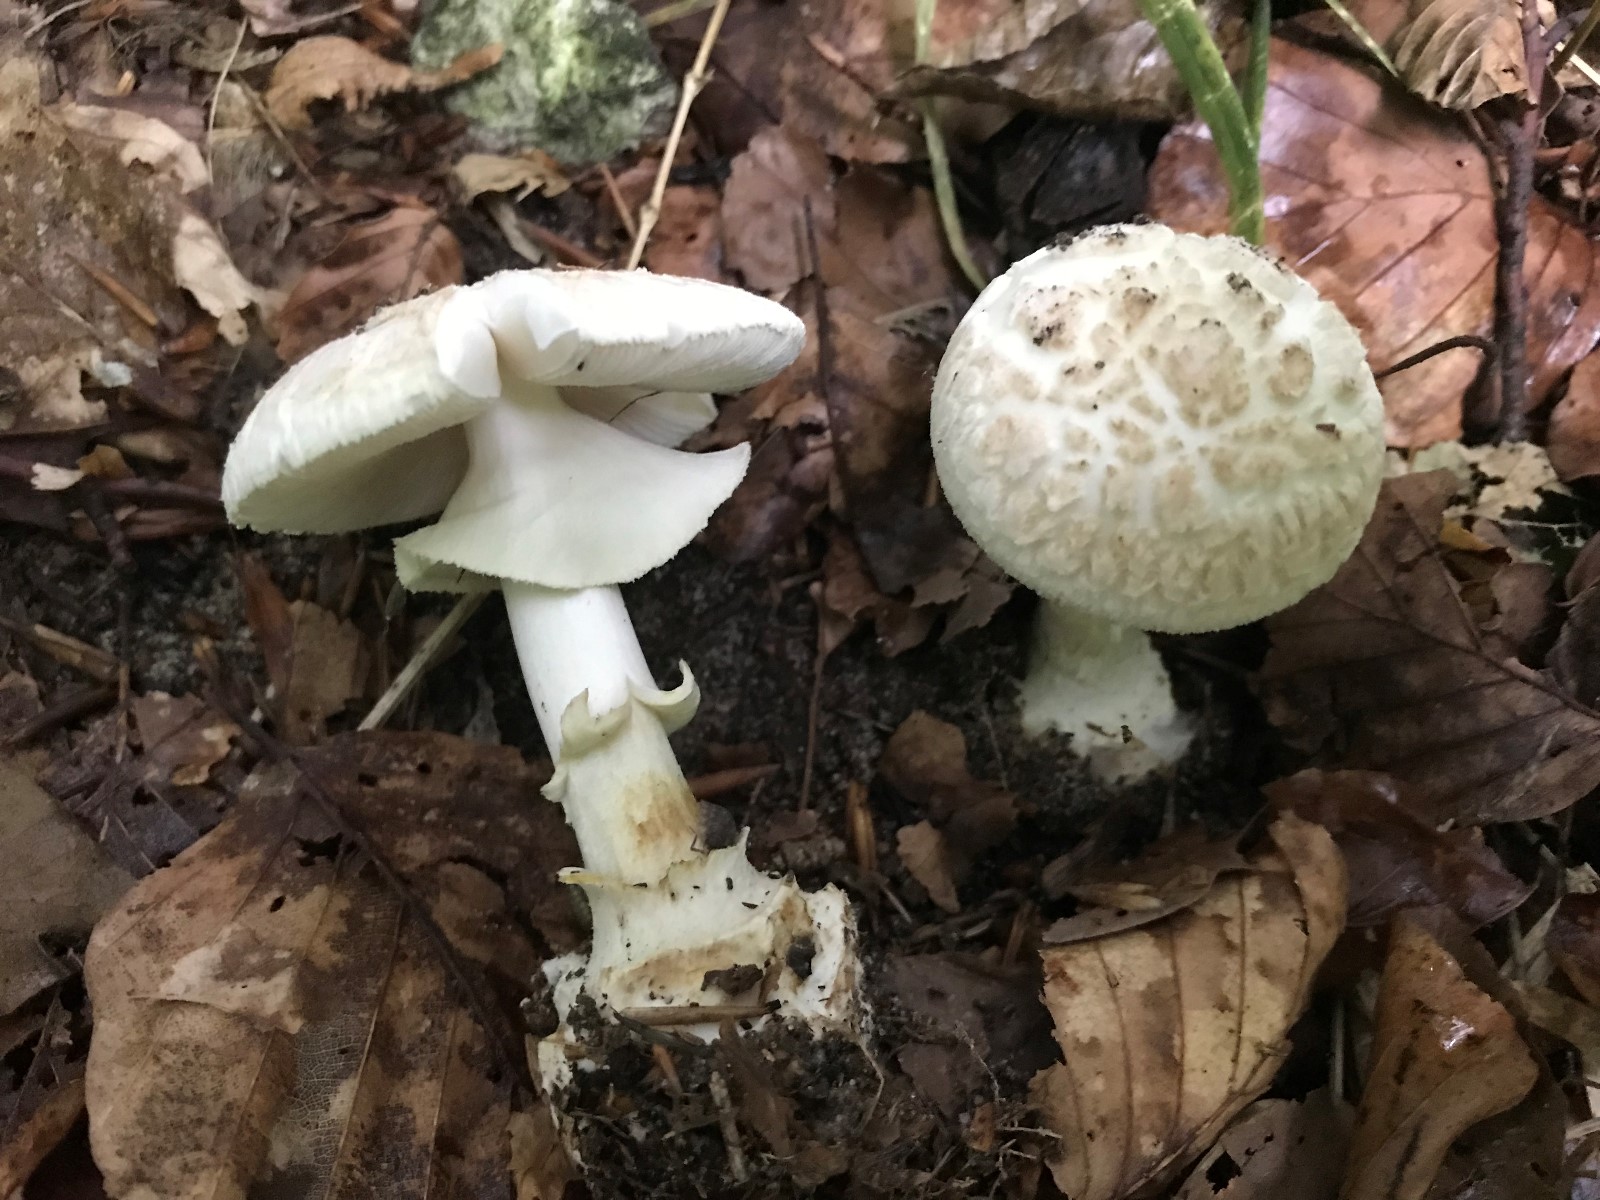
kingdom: Fungi
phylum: Basidiomycota
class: Agaricomycetes
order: Agaricales
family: Amanitaceae
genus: Amanita
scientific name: Amanita citrina
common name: kugleknoldet fluesvamp
